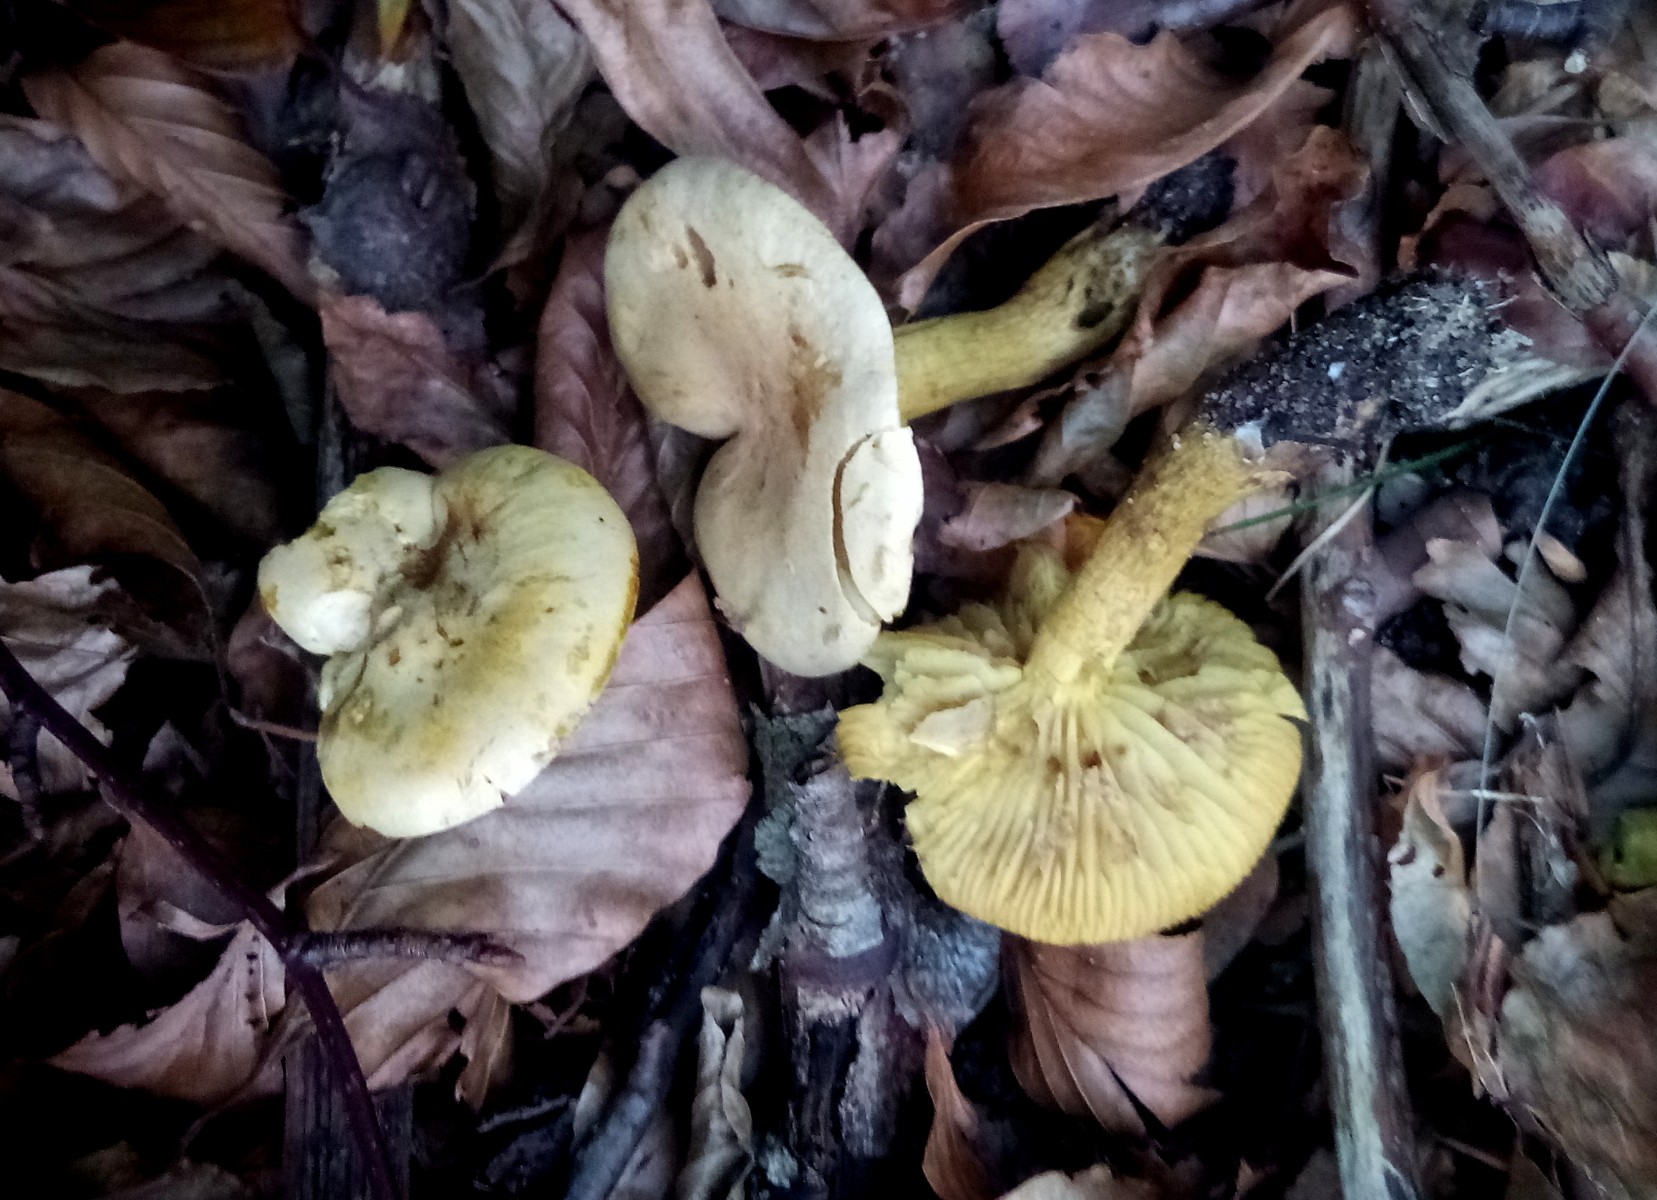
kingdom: Fungi
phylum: Basidiomycota
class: Agaricomycetes
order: Agaricales
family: Tricholomataceae
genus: Tricholoma
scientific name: Tricholoma sulphureum
